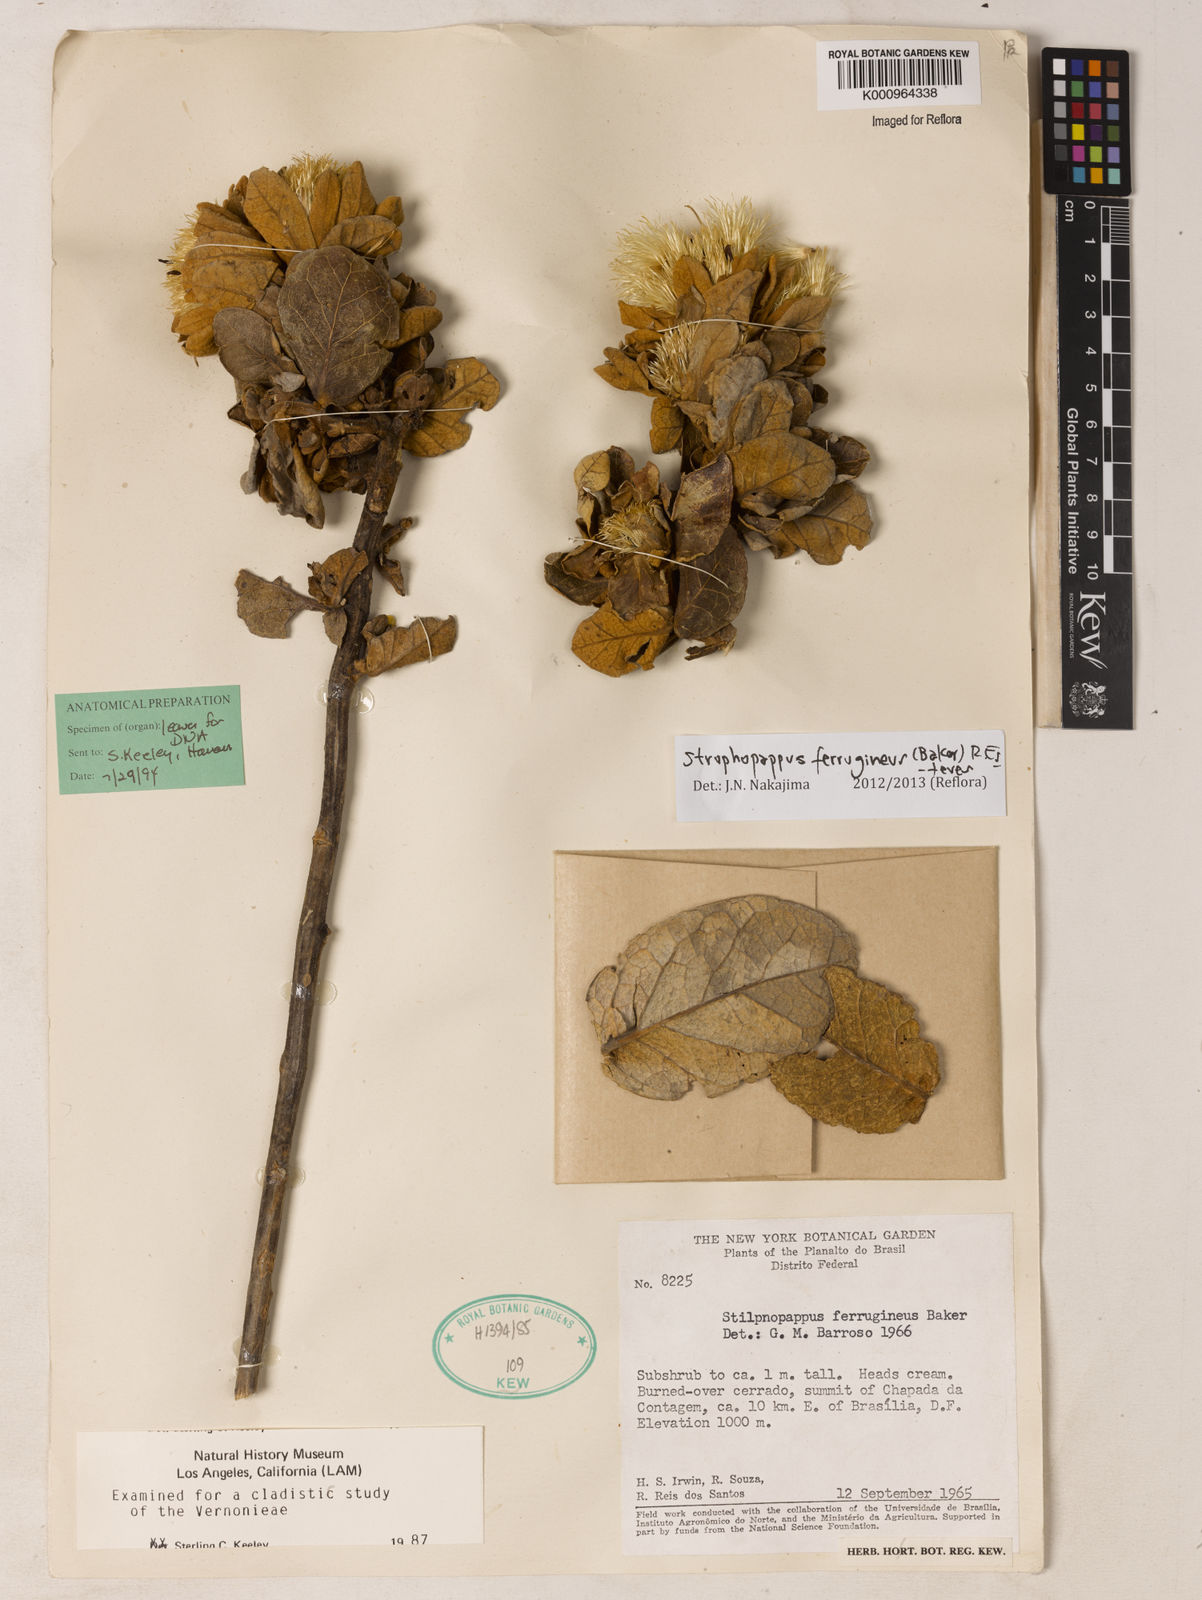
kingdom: Plantae
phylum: Tracheophyta
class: Magnoliopsida
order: Asterales
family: Asteraceae
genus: Stilpnopappus
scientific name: Stilpnopappus ferrugineus
